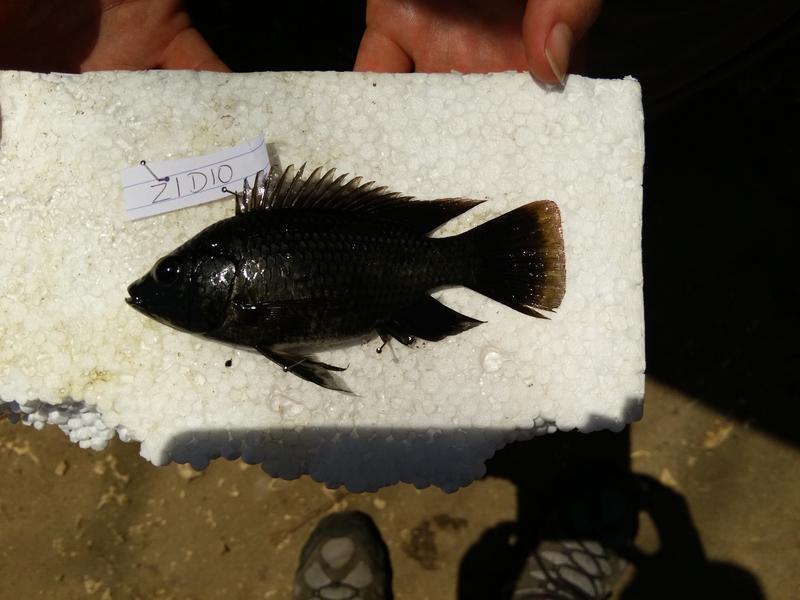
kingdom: Animalia
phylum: Chordata
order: Perciformes
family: Cichlidae
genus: Oreochromis
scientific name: Oreochromis urolepis
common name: Wami tilapia
